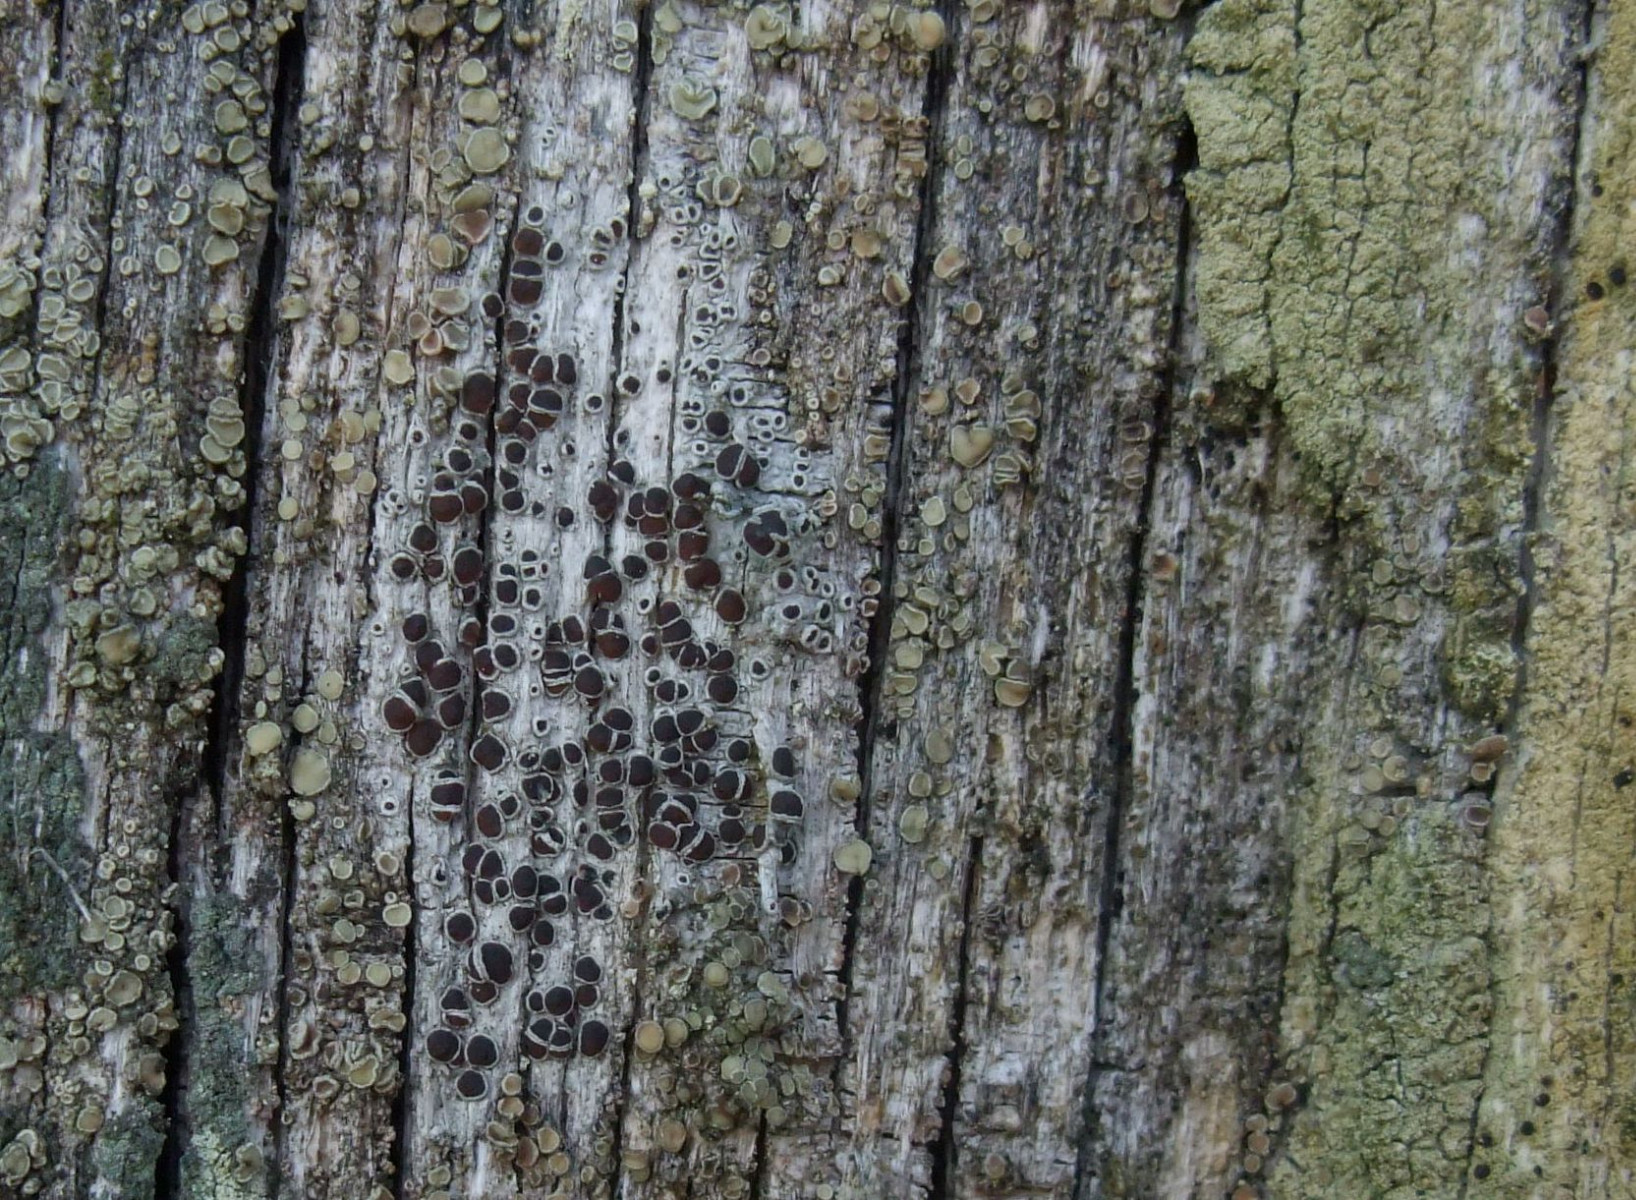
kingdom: Fungi
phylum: Ascomycota
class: Lecanoromycetes
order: Lecanorales
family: Lecanoraceae
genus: Lecanora
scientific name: Lecanora pulicaris
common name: almindelig kantskivelav
